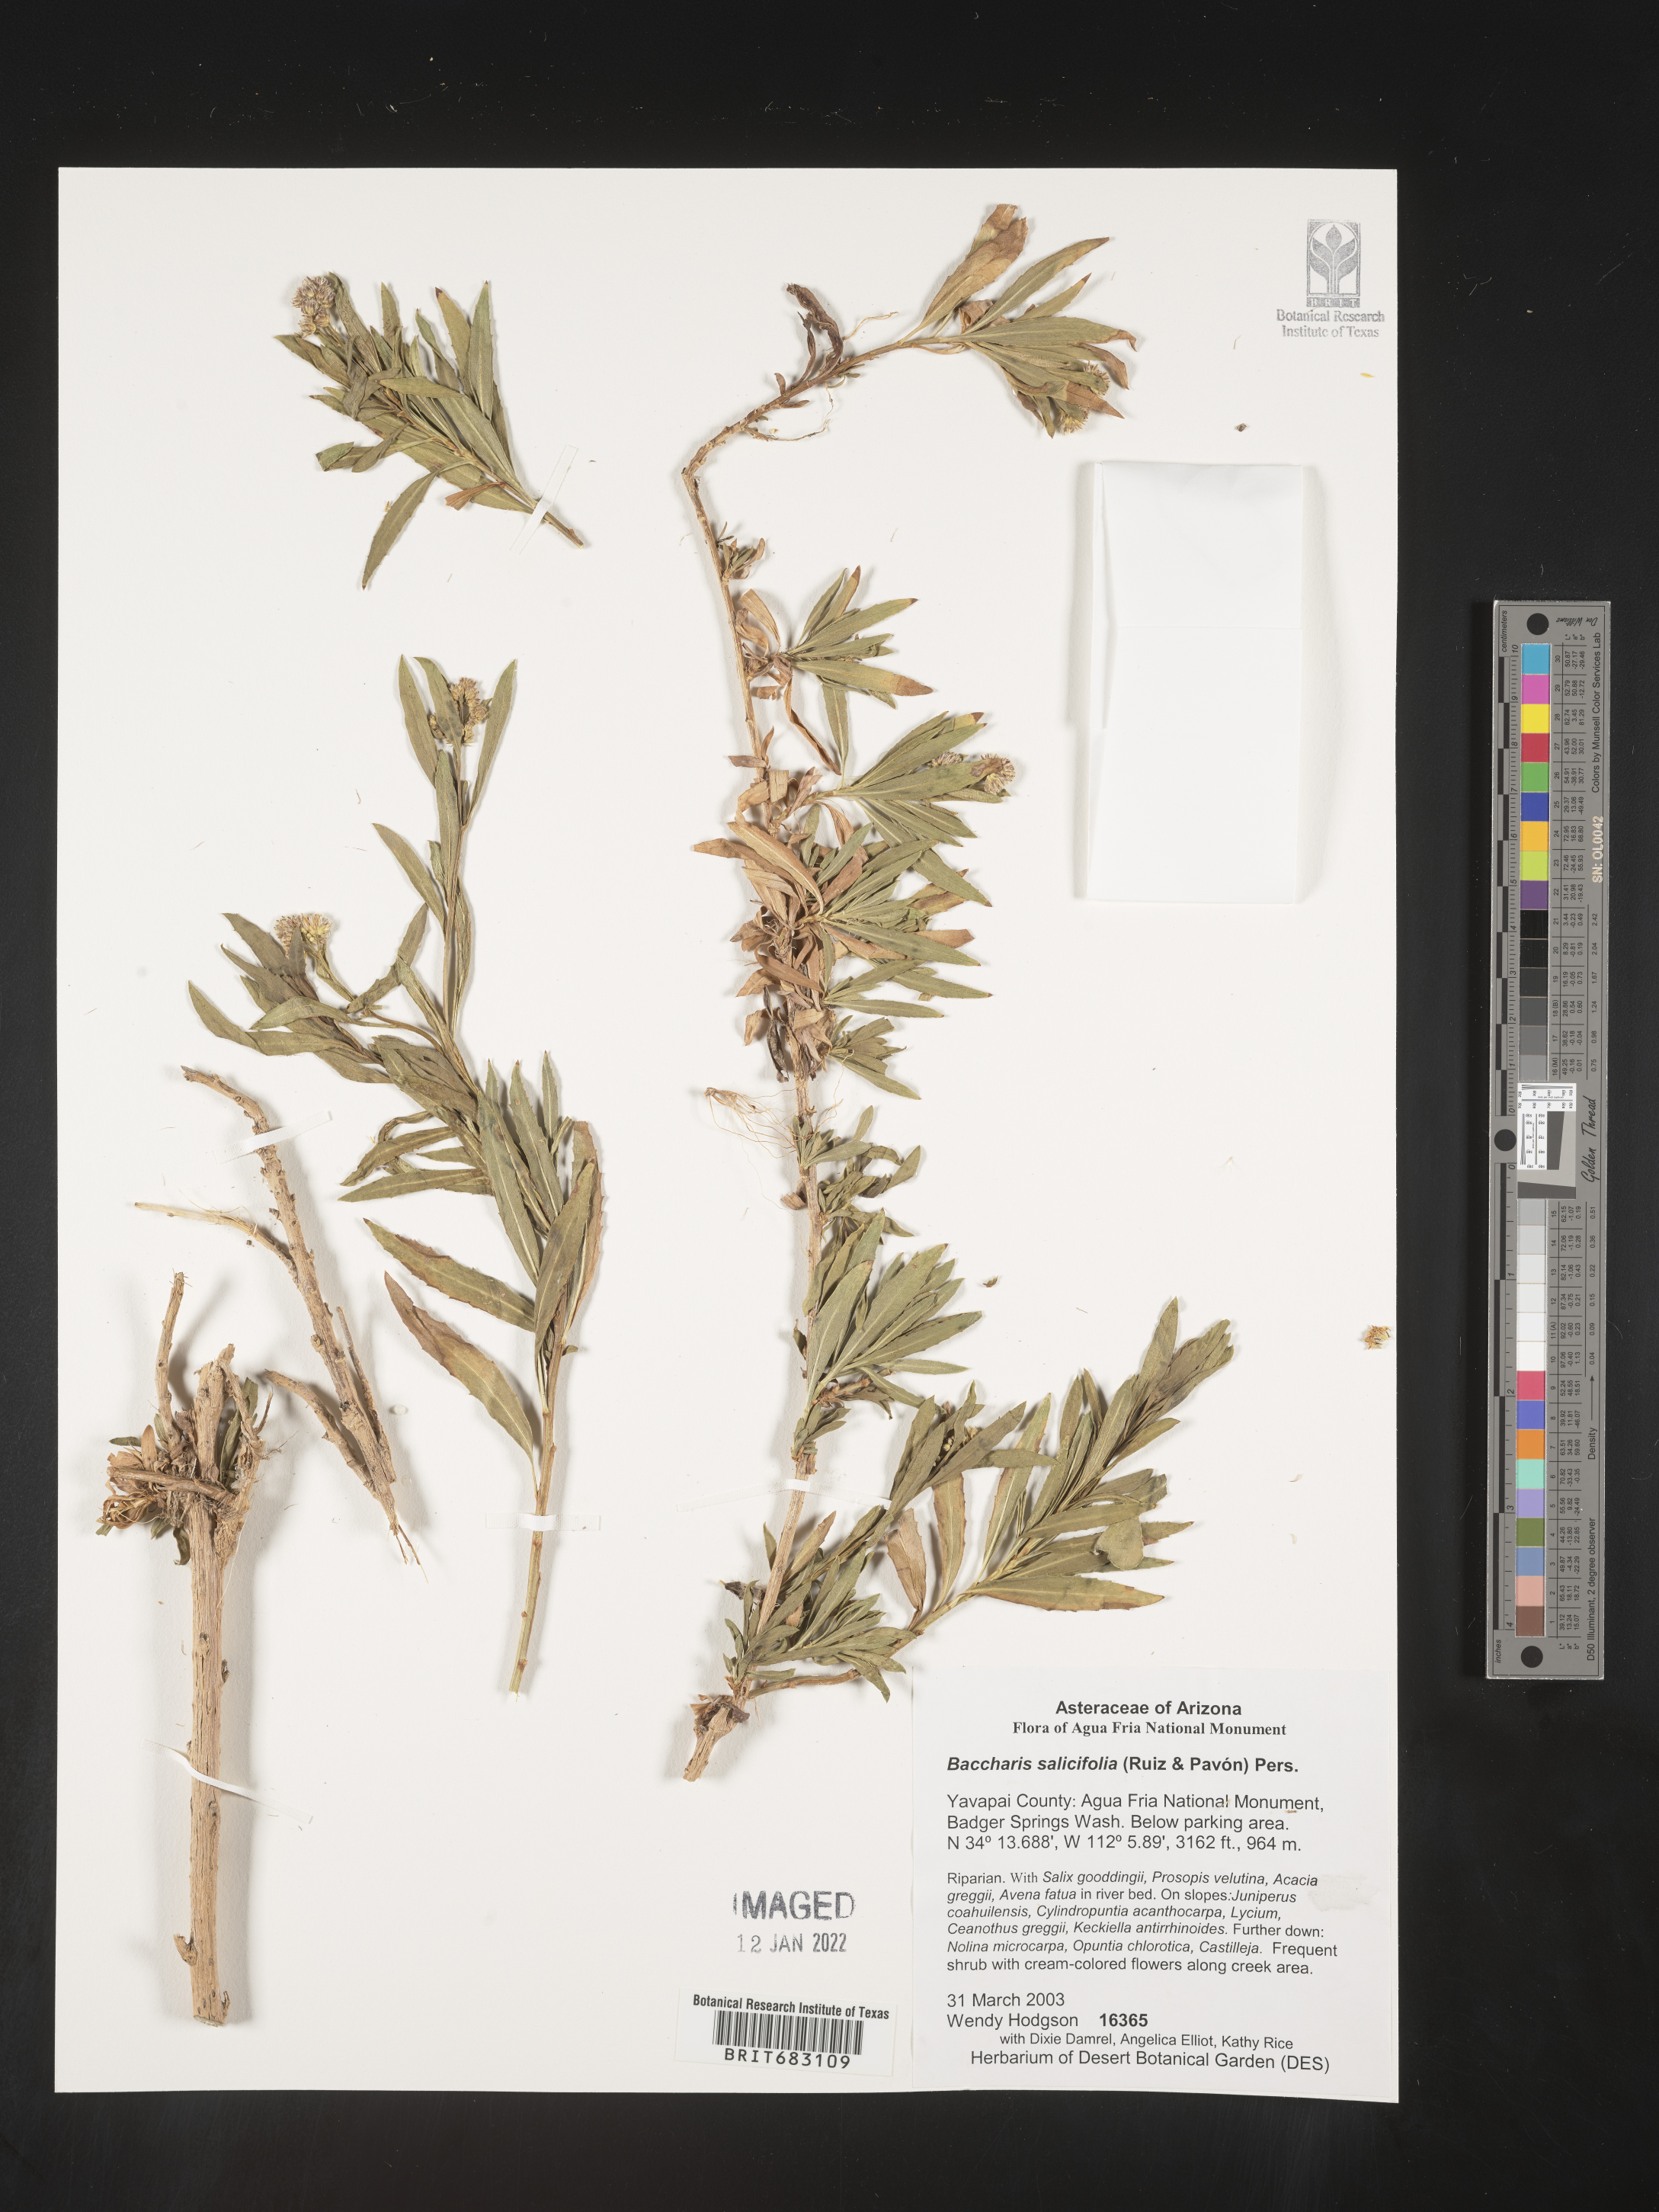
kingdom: Plantae
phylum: Tracheophyta
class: Magnoliopsida
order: Asterales
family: Asteraceae
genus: Baccharis
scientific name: Baccharis salicifolia
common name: Sticky baccharis
